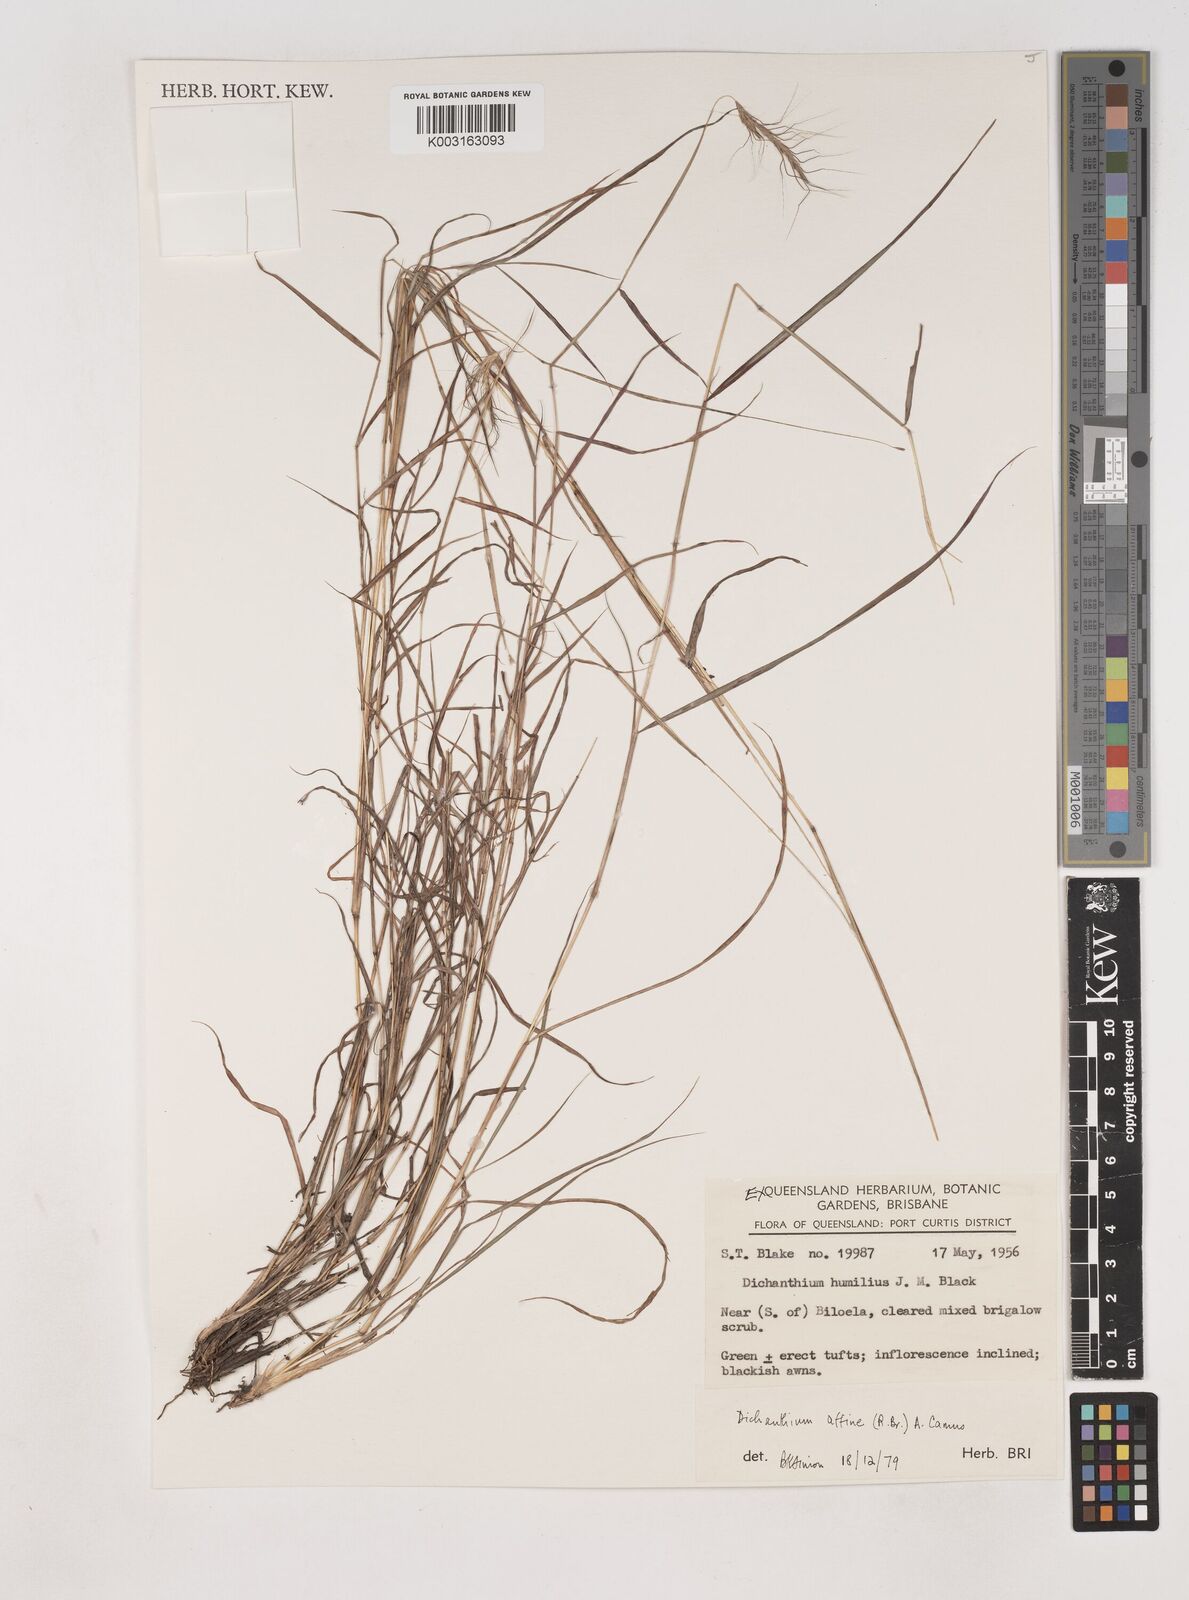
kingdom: Plantae
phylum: Tracheophyta
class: Liliopsida
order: Poales
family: Poaceae
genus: Dichanthium
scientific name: Dichanthium sericeum
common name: Silky bluestem
